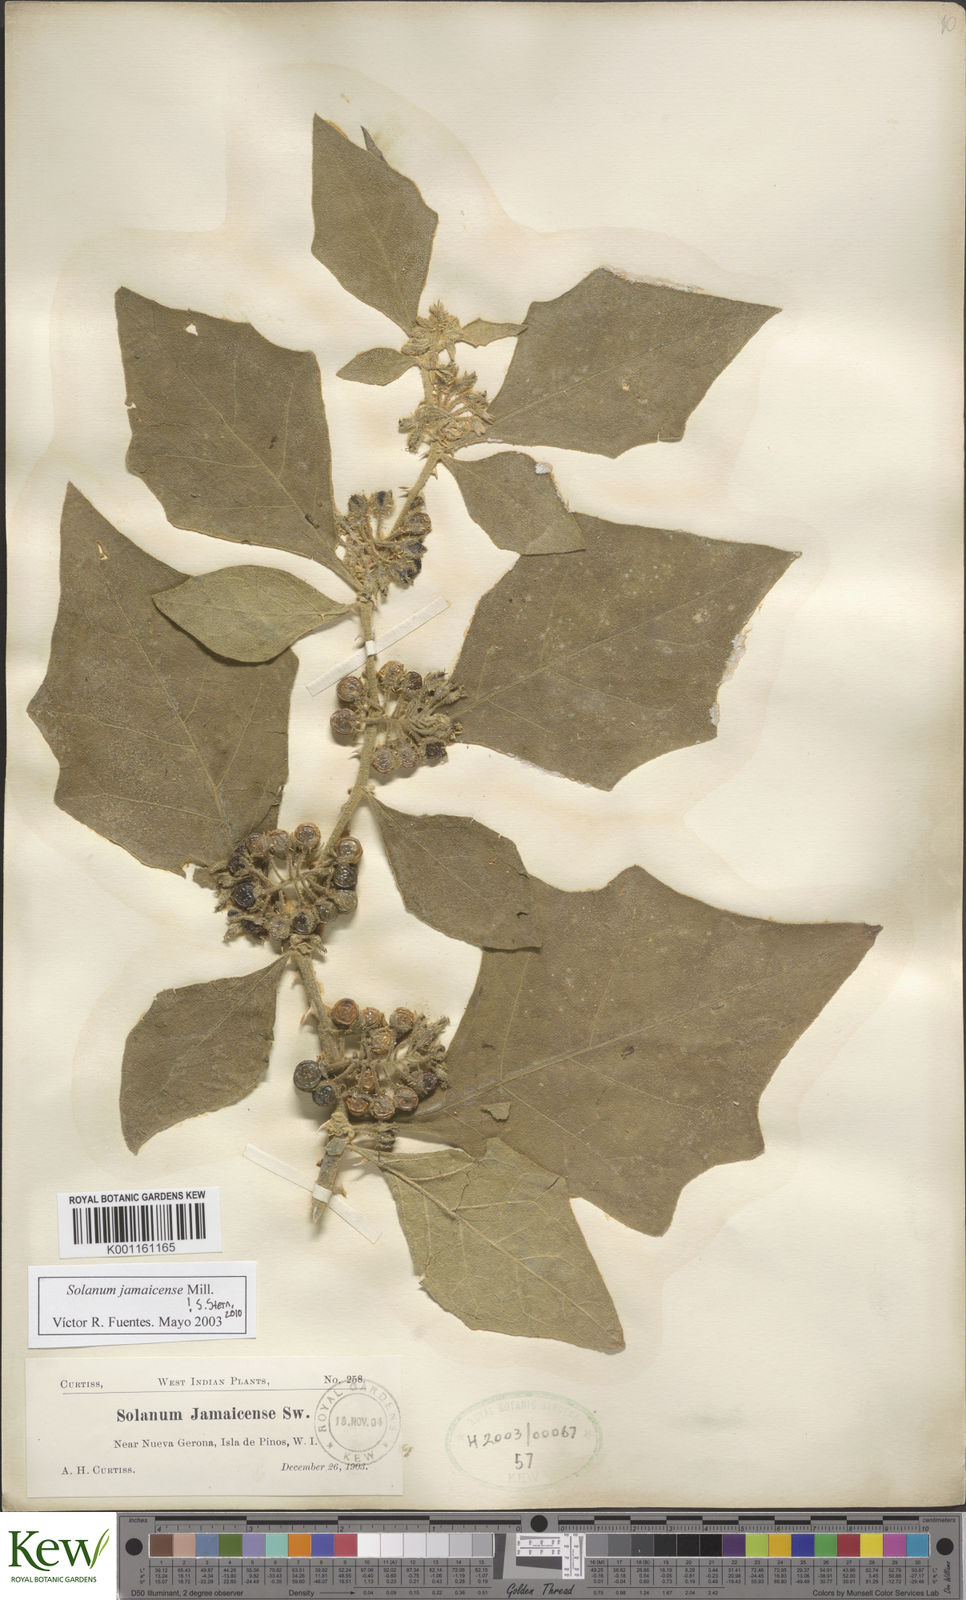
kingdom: Plantae
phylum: Tracheophyta
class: Magnoliopsida
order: Solanales
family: Solanaceae
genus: Solanum
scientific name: Solanum jamaicense
